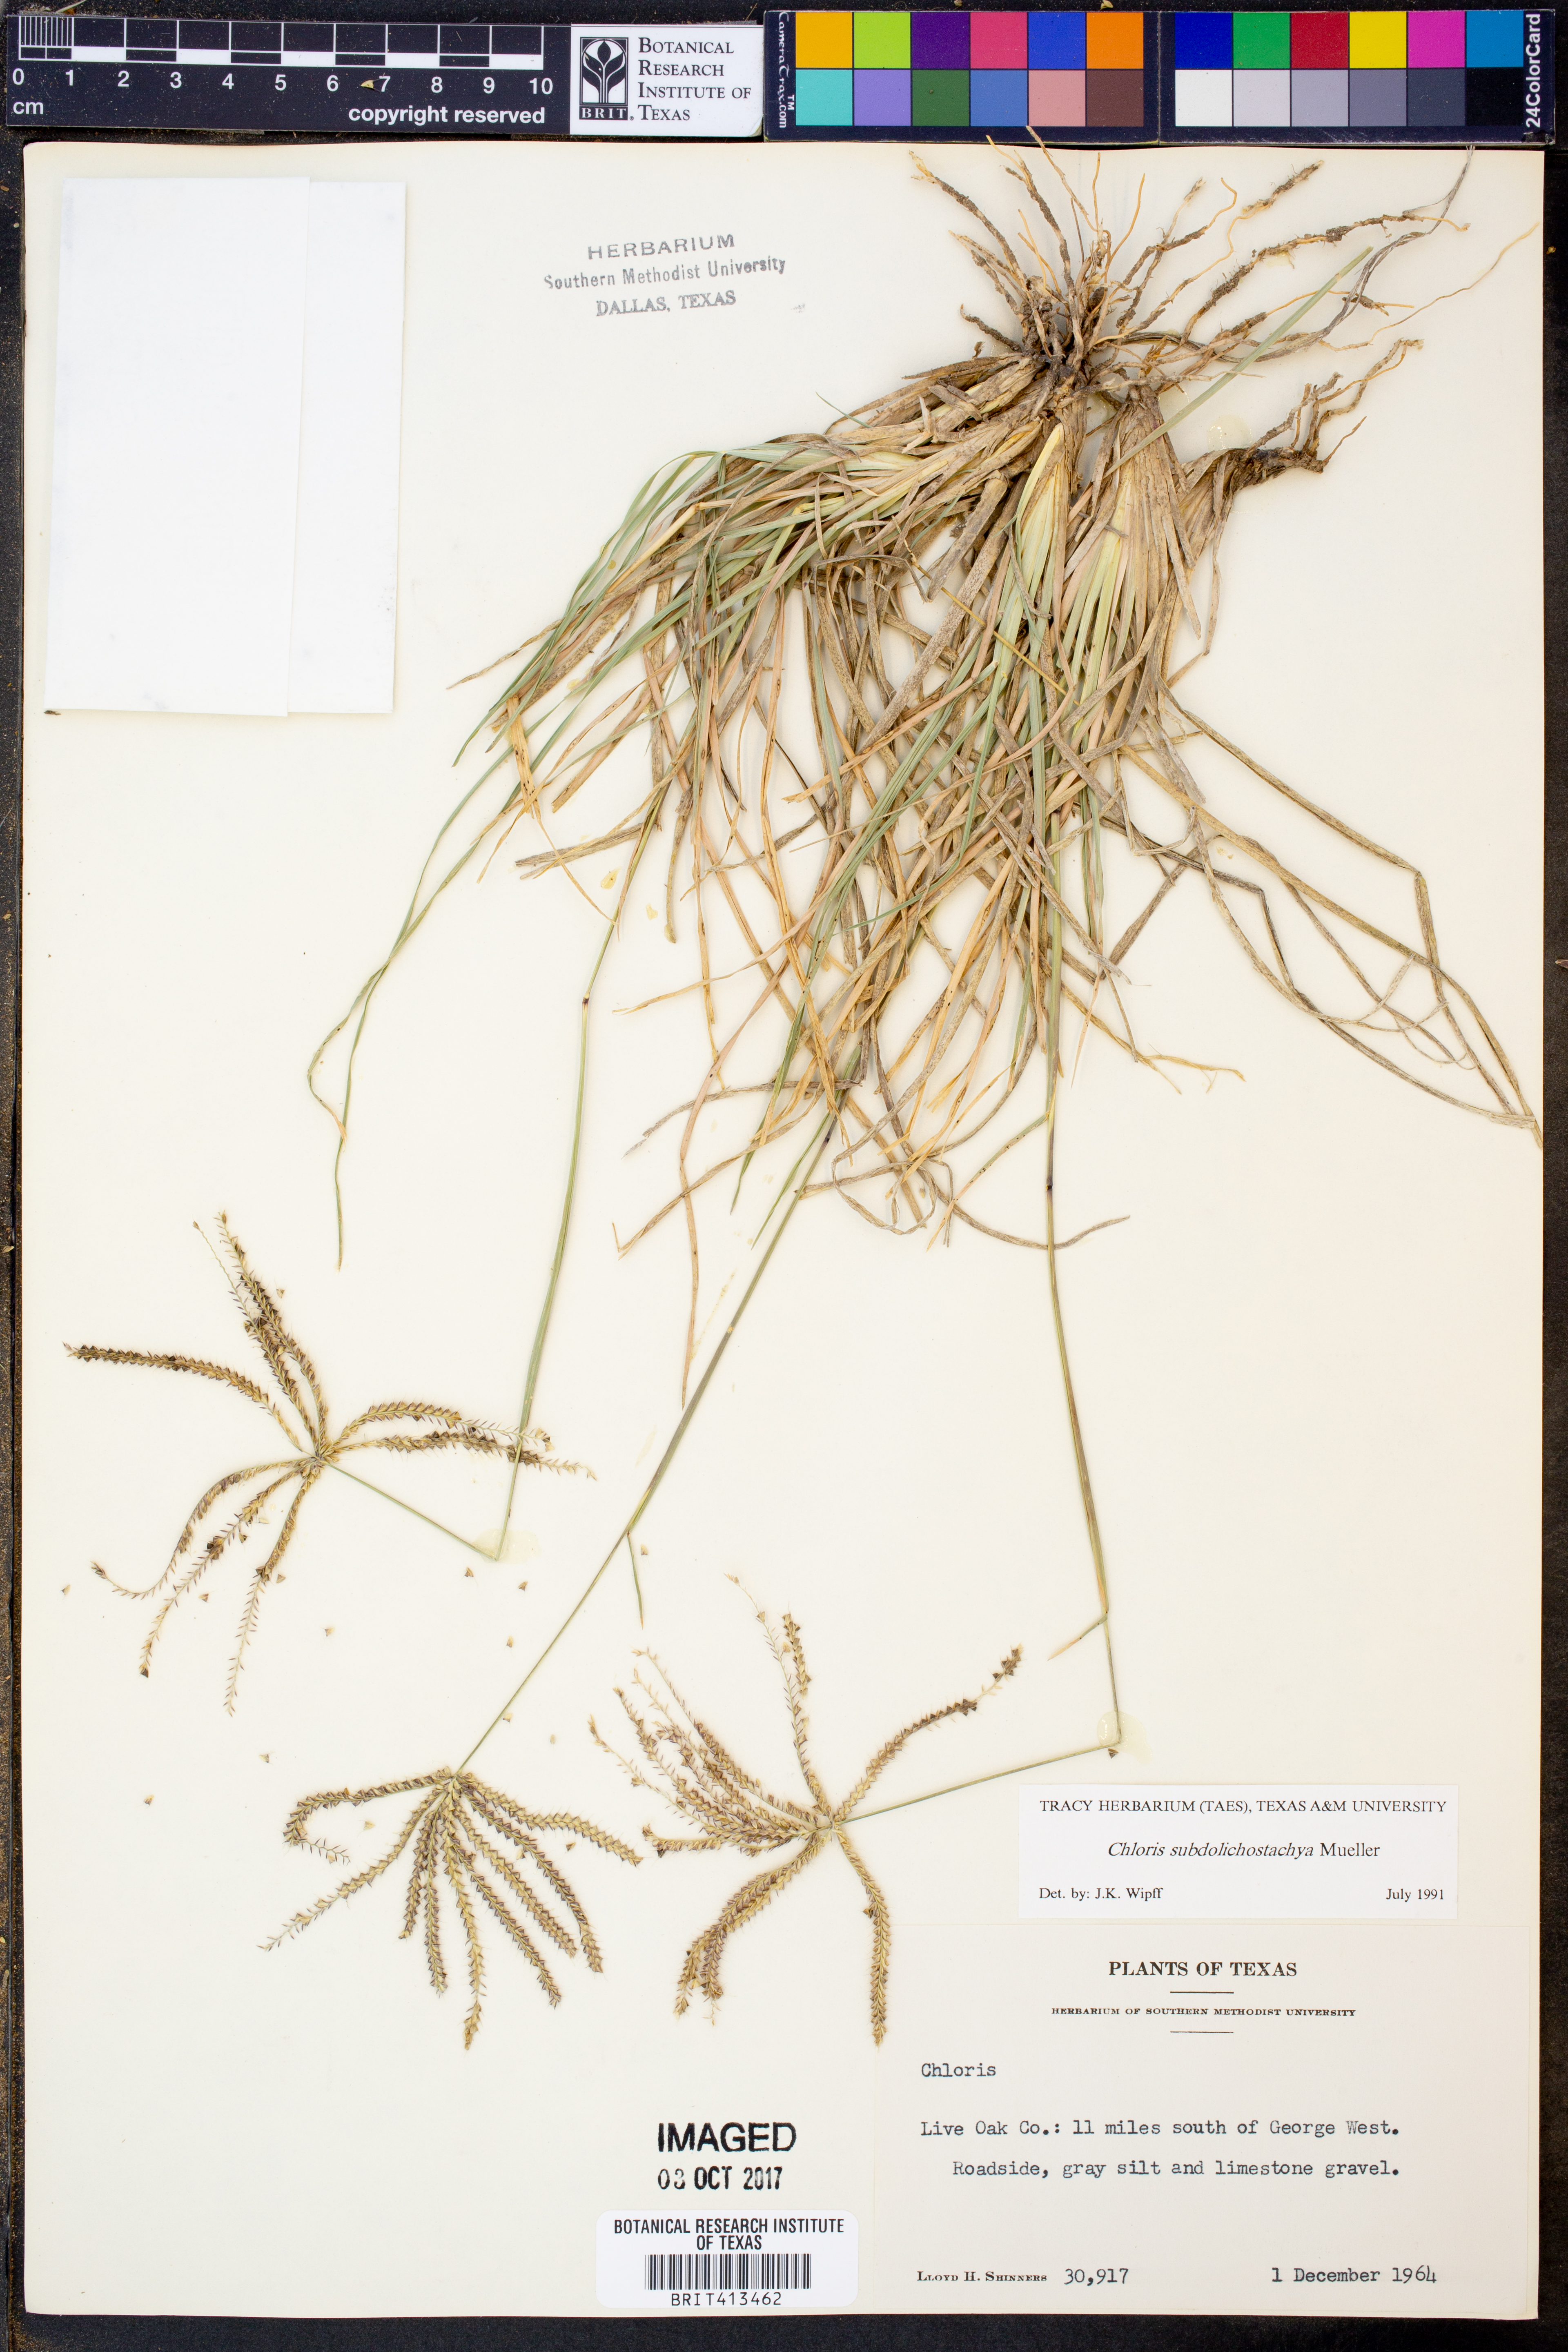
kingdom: Plantae
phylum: Tracheophyta
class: Liliopsida
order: Poales
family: Poaceae
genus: Chloris
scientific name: Chloris subdolichostachya
